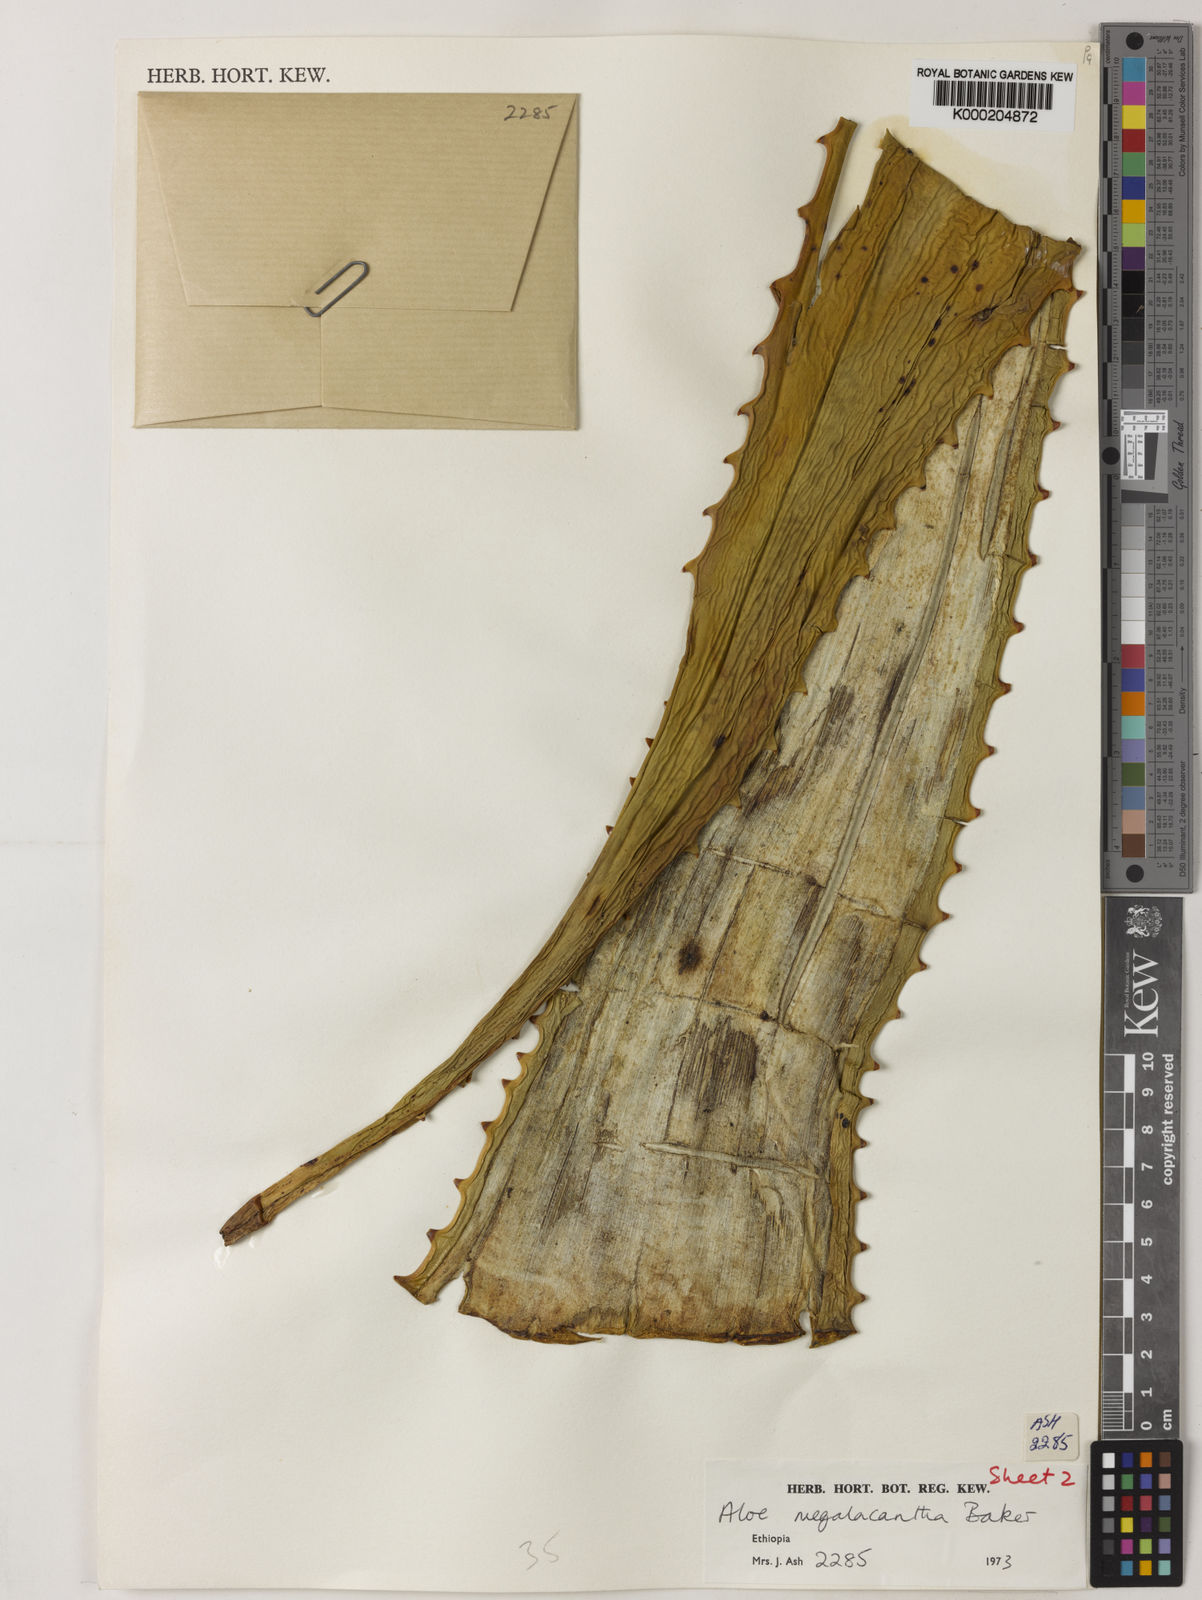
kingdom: Plantae
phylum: Tracheophyta
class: Liliopsida
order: Asparagales
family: Asphodelaceae
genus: Aloe
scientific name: Aloe gilbertii
